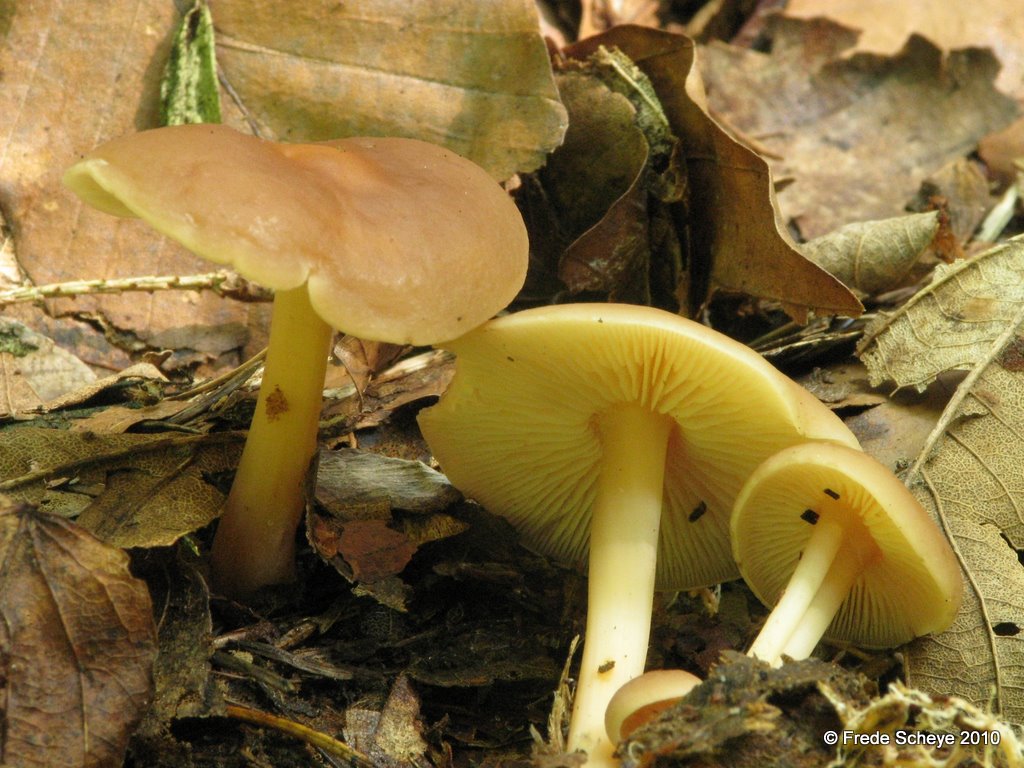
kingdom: Fungi
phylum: Basidiomycota
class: Agaricomycetes
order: Agaricales
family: Omphalotaceae
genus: Gymnopus
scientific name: Gymnopus ocior
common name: mørk fladhat
